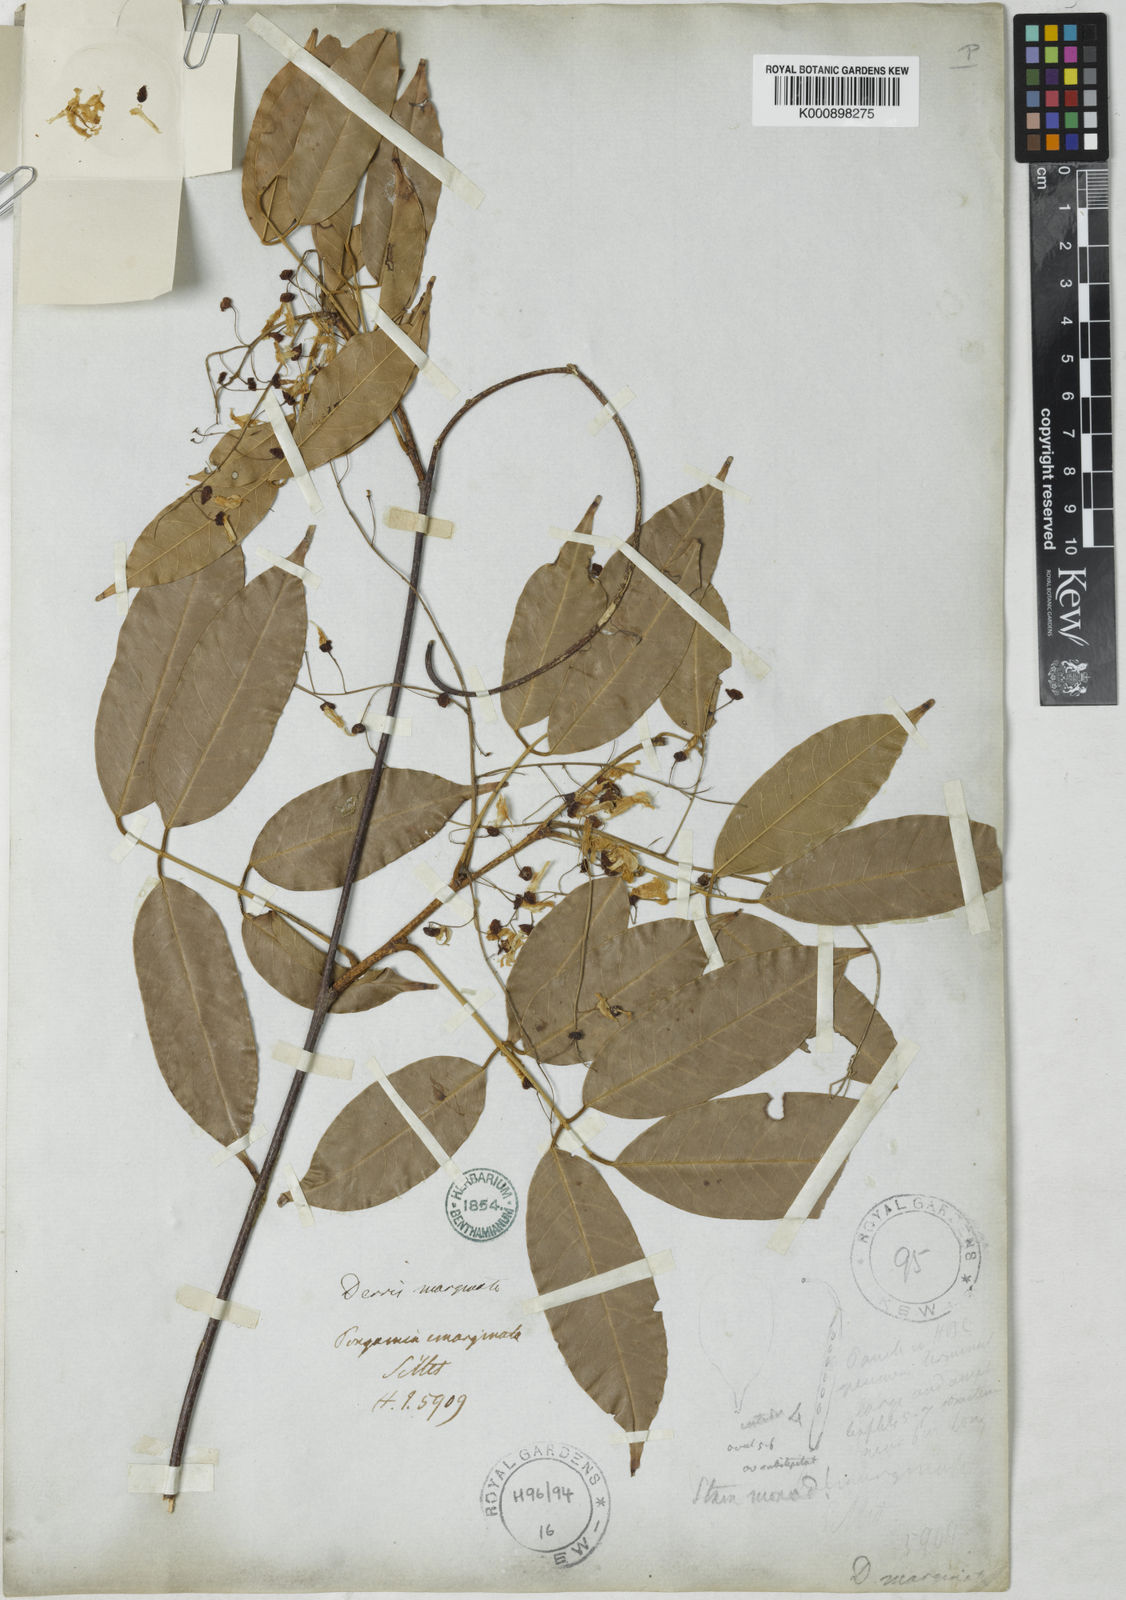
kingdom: Plantae
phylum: Tracheophyta
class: Magnoliopsida
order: Fabales
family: Fabaceae
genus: Derris
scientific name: Derris marginata
